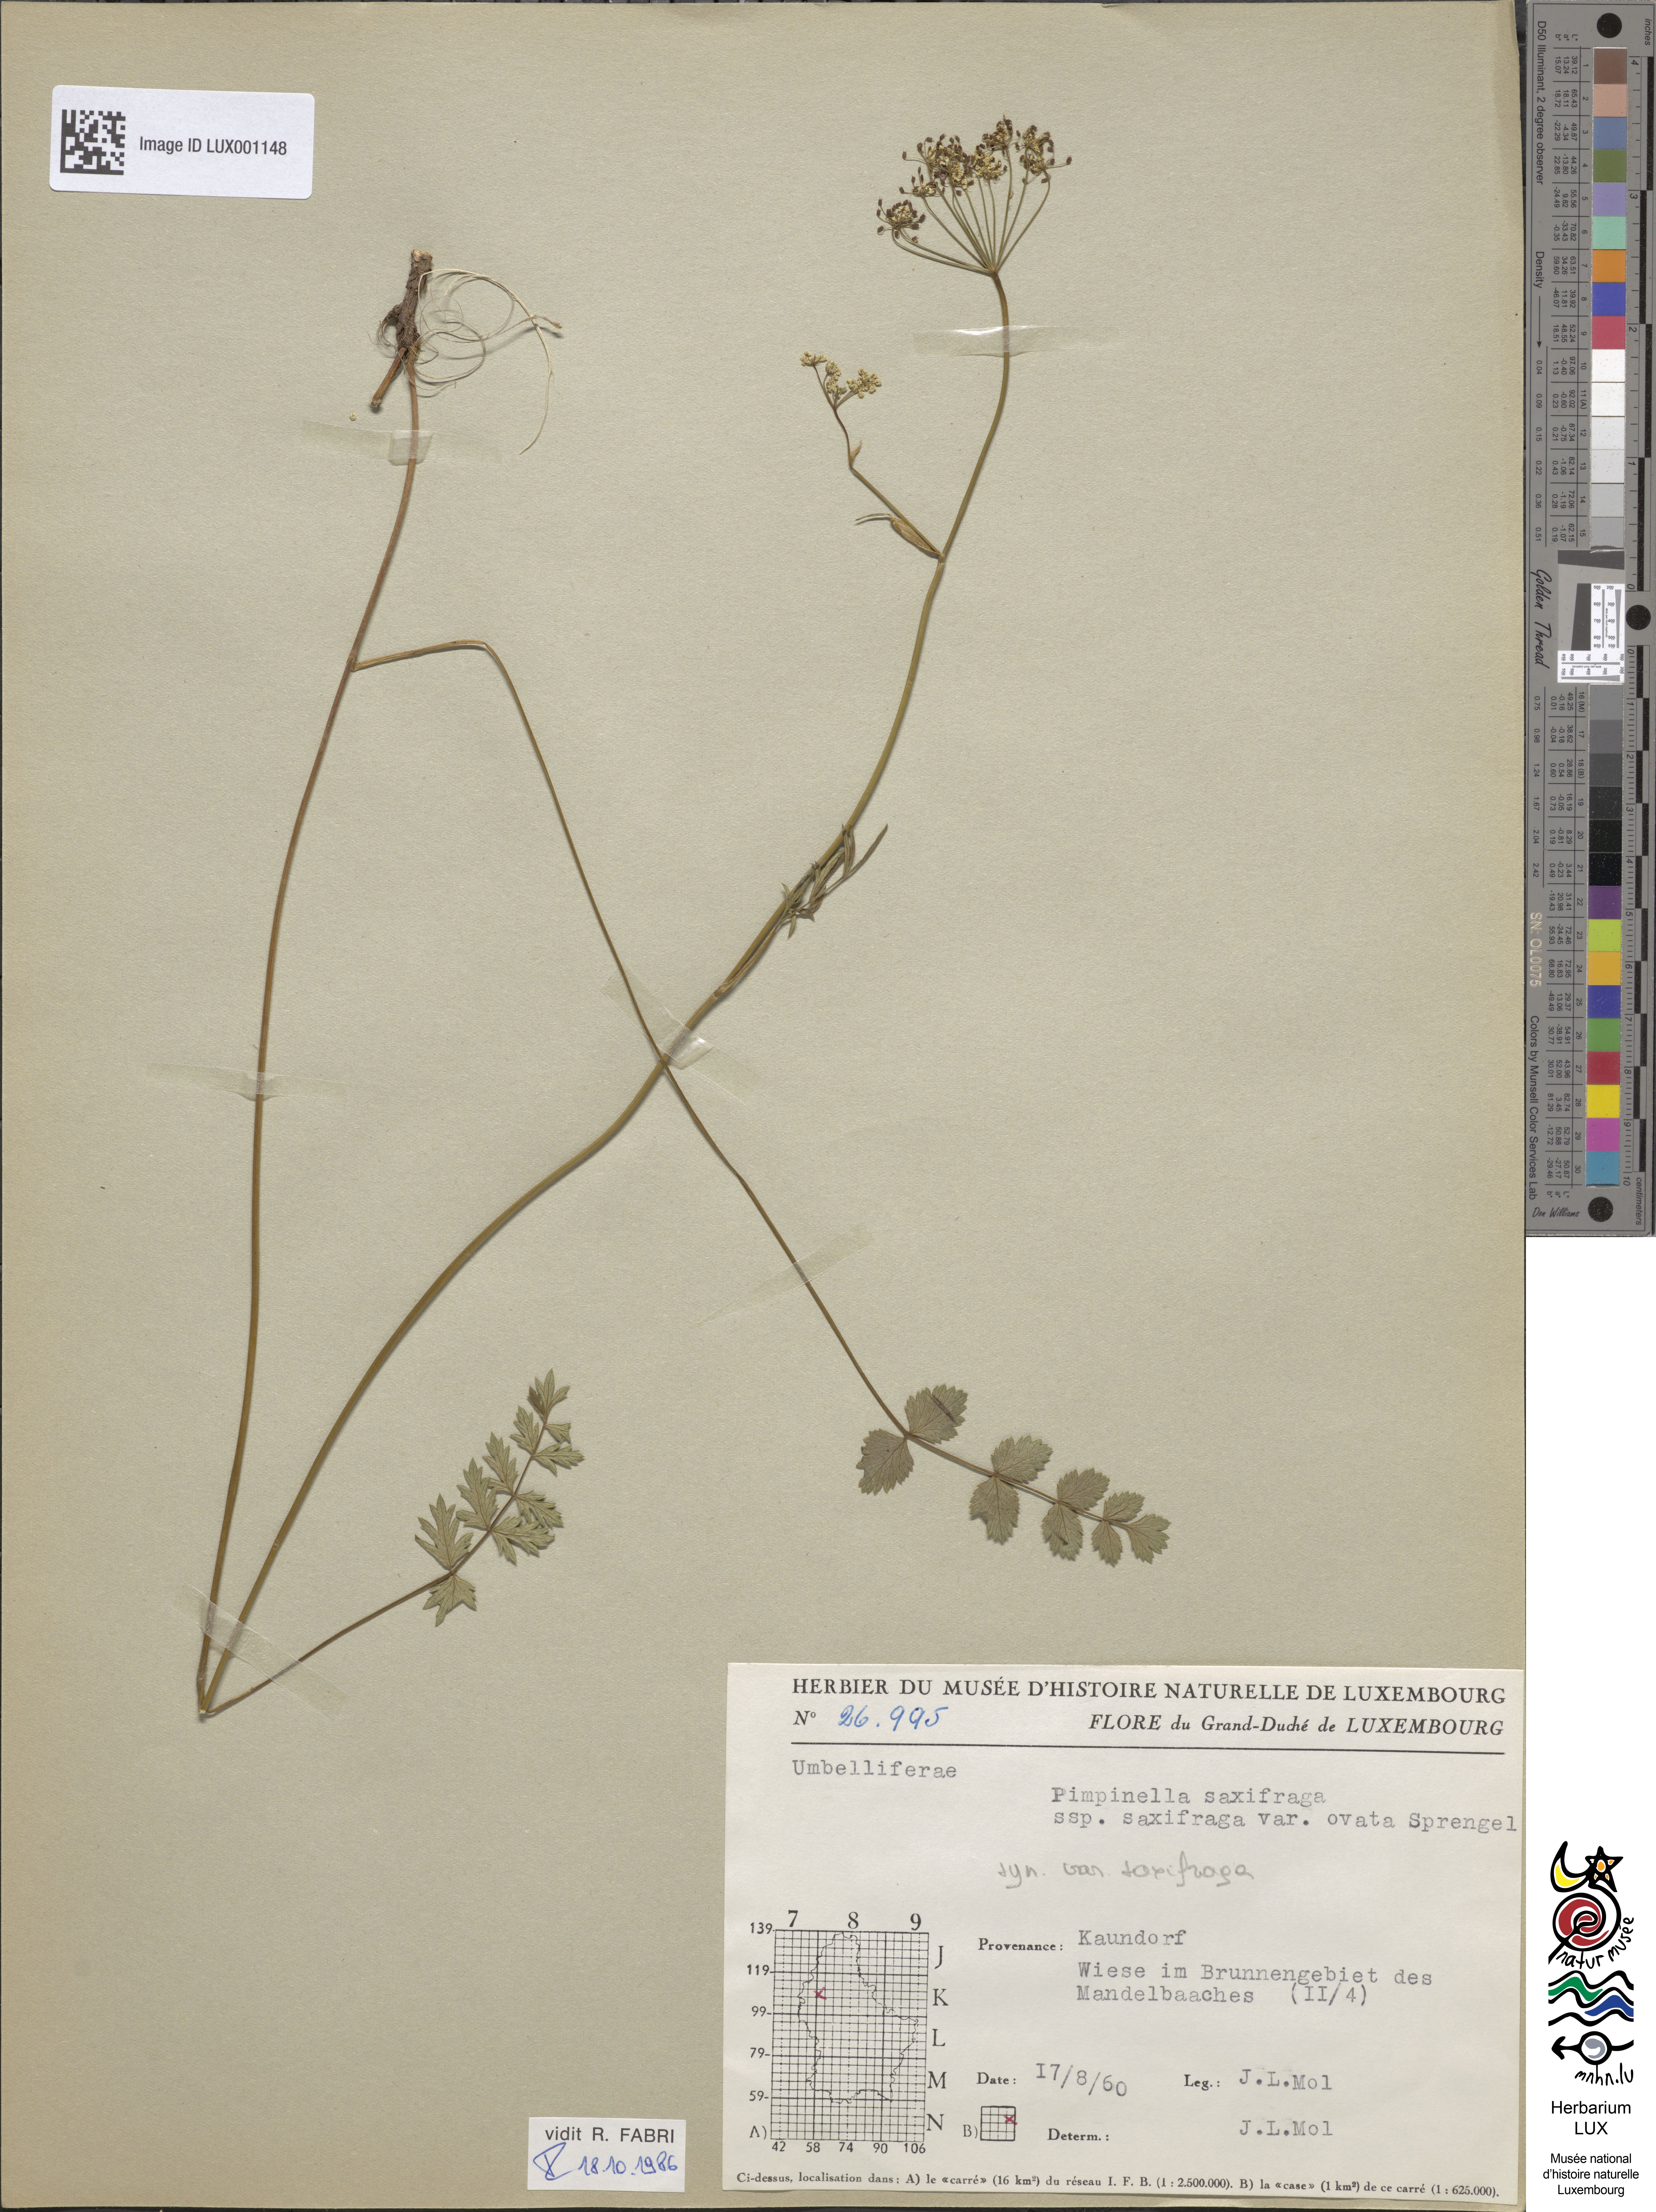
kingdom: Plantae
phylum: Tracheophyta
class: Magnoliopsida
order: Apiales
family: Apiaceae
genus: Pimpinella
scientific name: Pimpinella saxifraga
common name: Burnet-saxifrage
